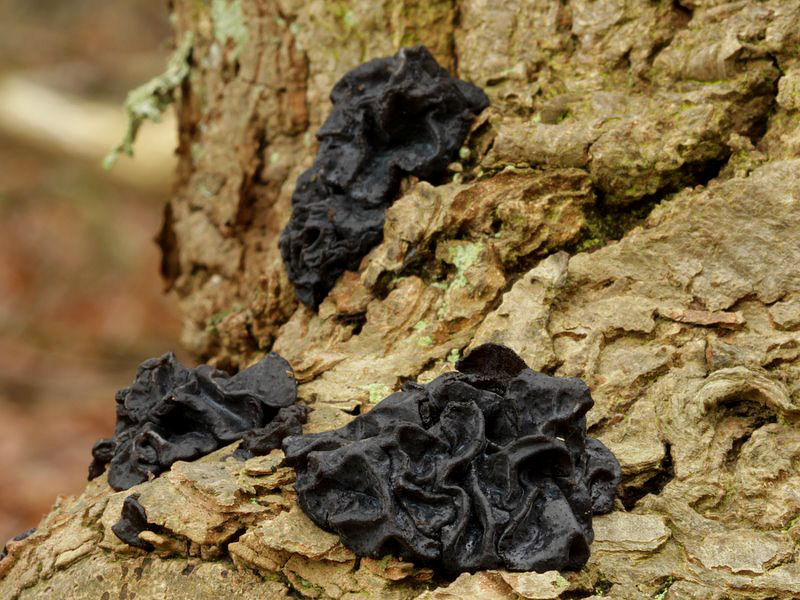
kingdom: Fungi
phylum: Basidiomycota
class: Agaricomycetes
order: Auriculariales
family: Auriculariaceae
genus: Exidia
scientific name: Exidia glandulosa
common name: ege-bævretop
